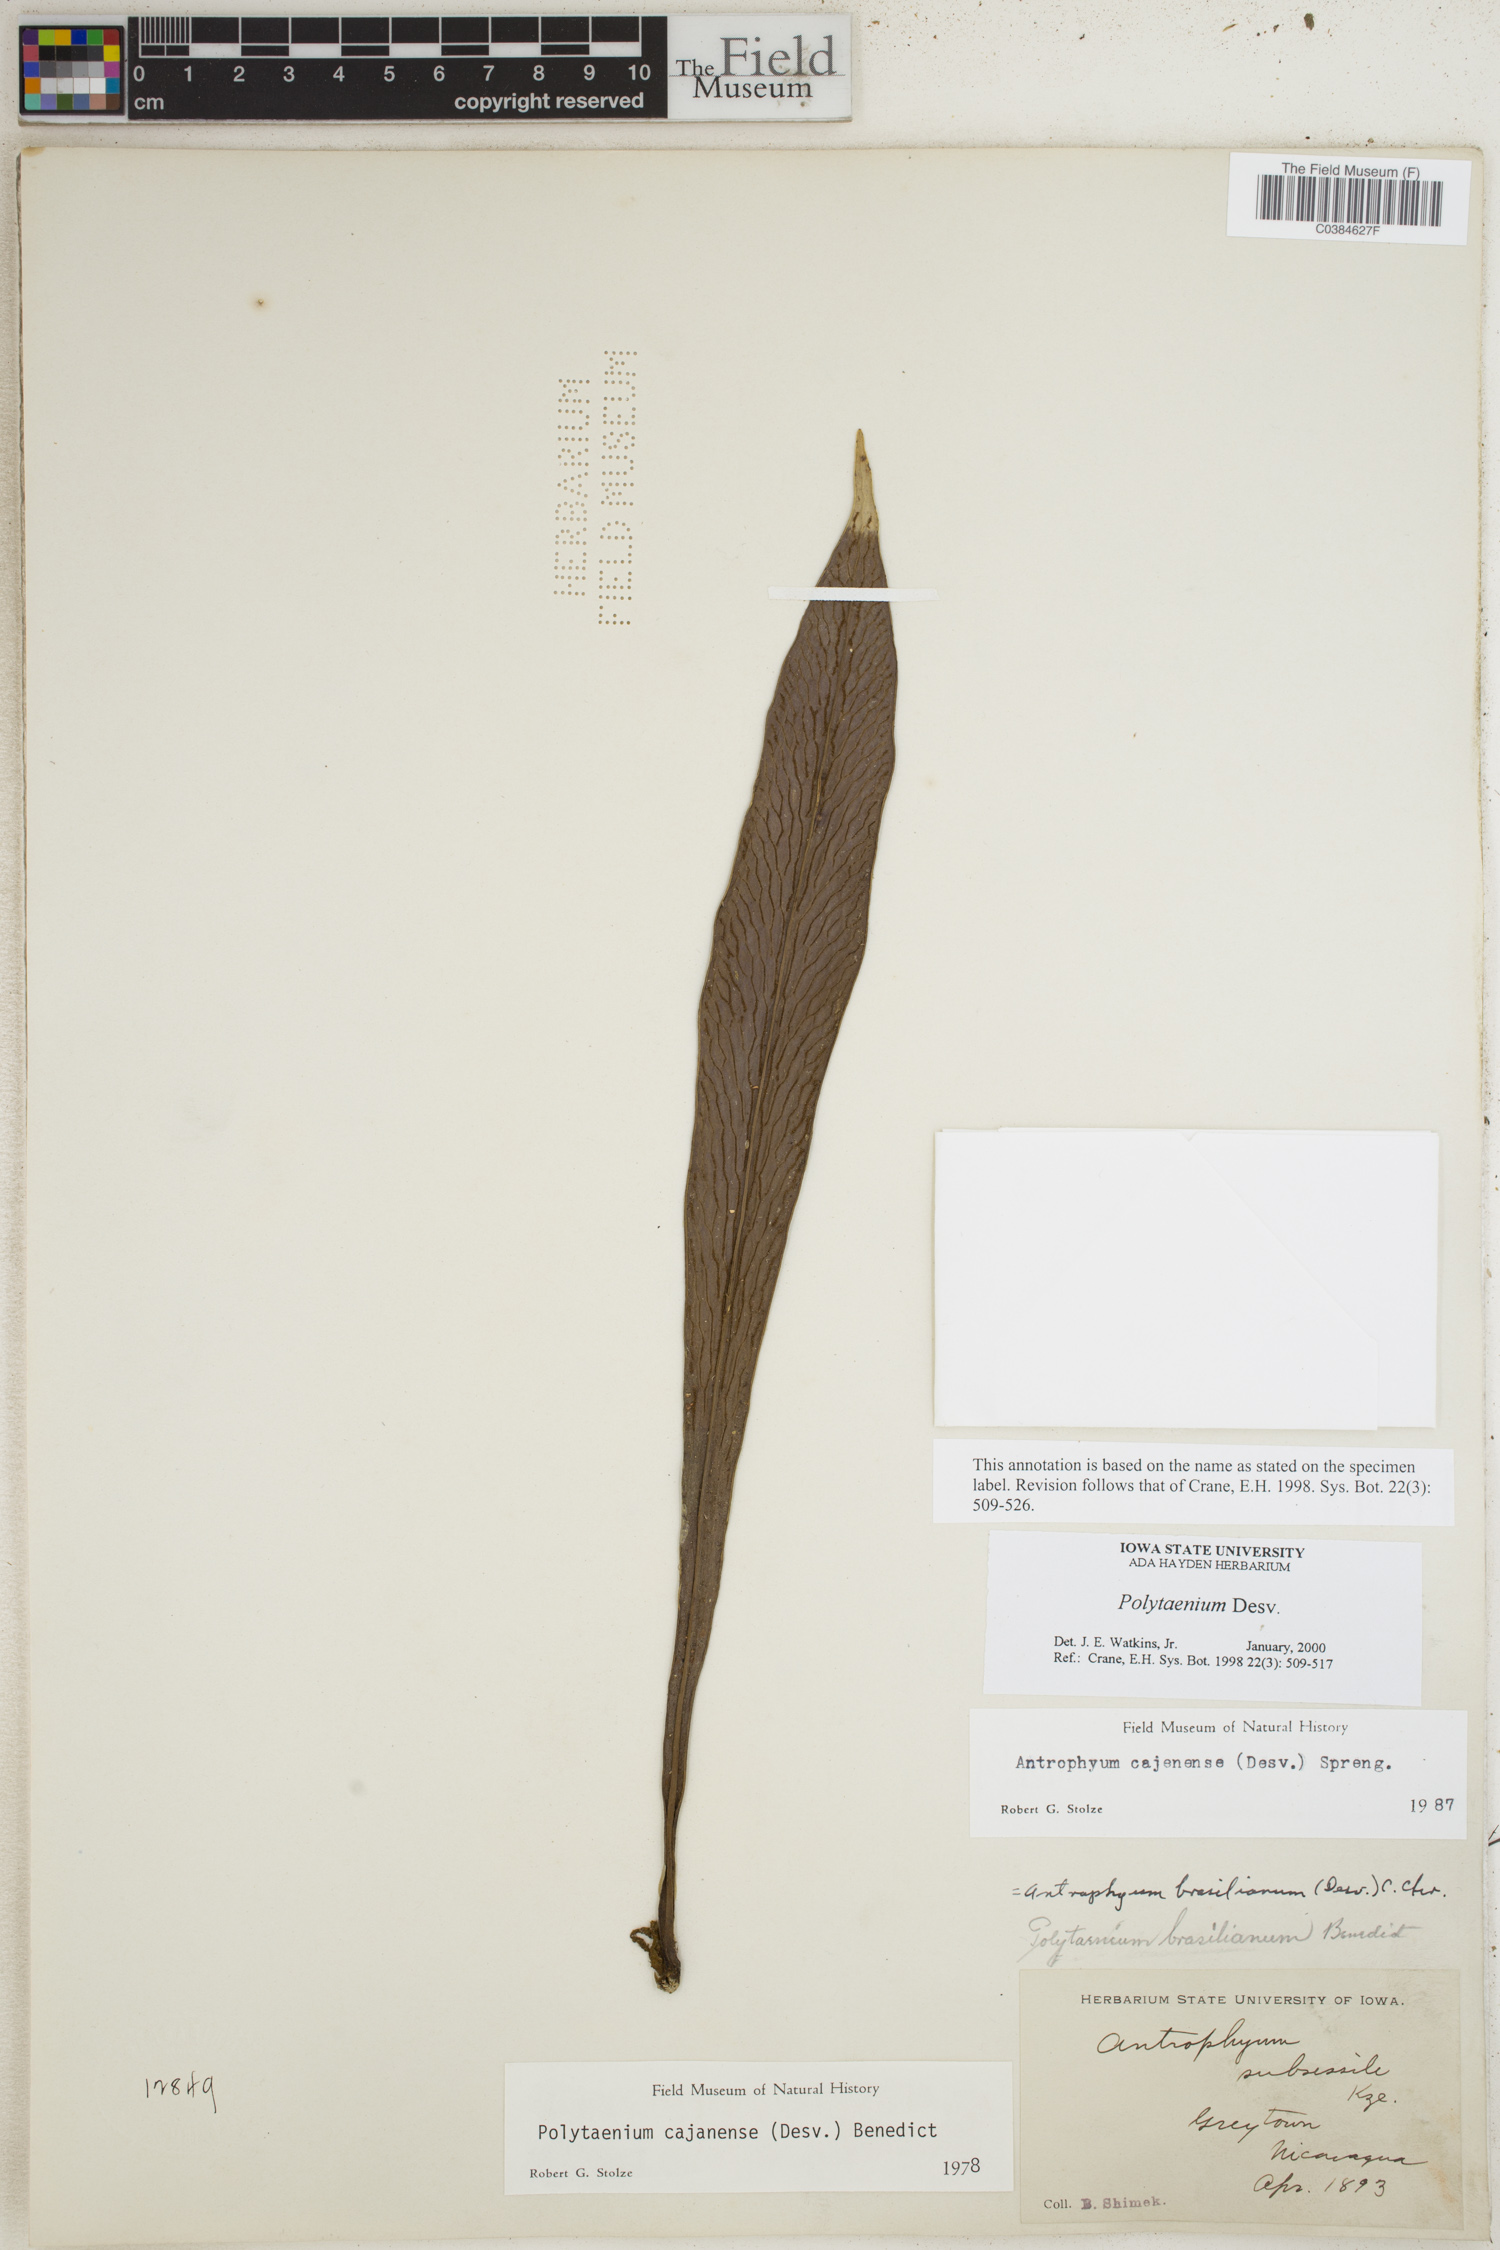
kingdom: Plantae
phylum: Tracheophyta
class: Polypodiopsida
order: Polypodiales
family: Pteridaceae
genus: Polytaenium
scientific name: Polytaenium
